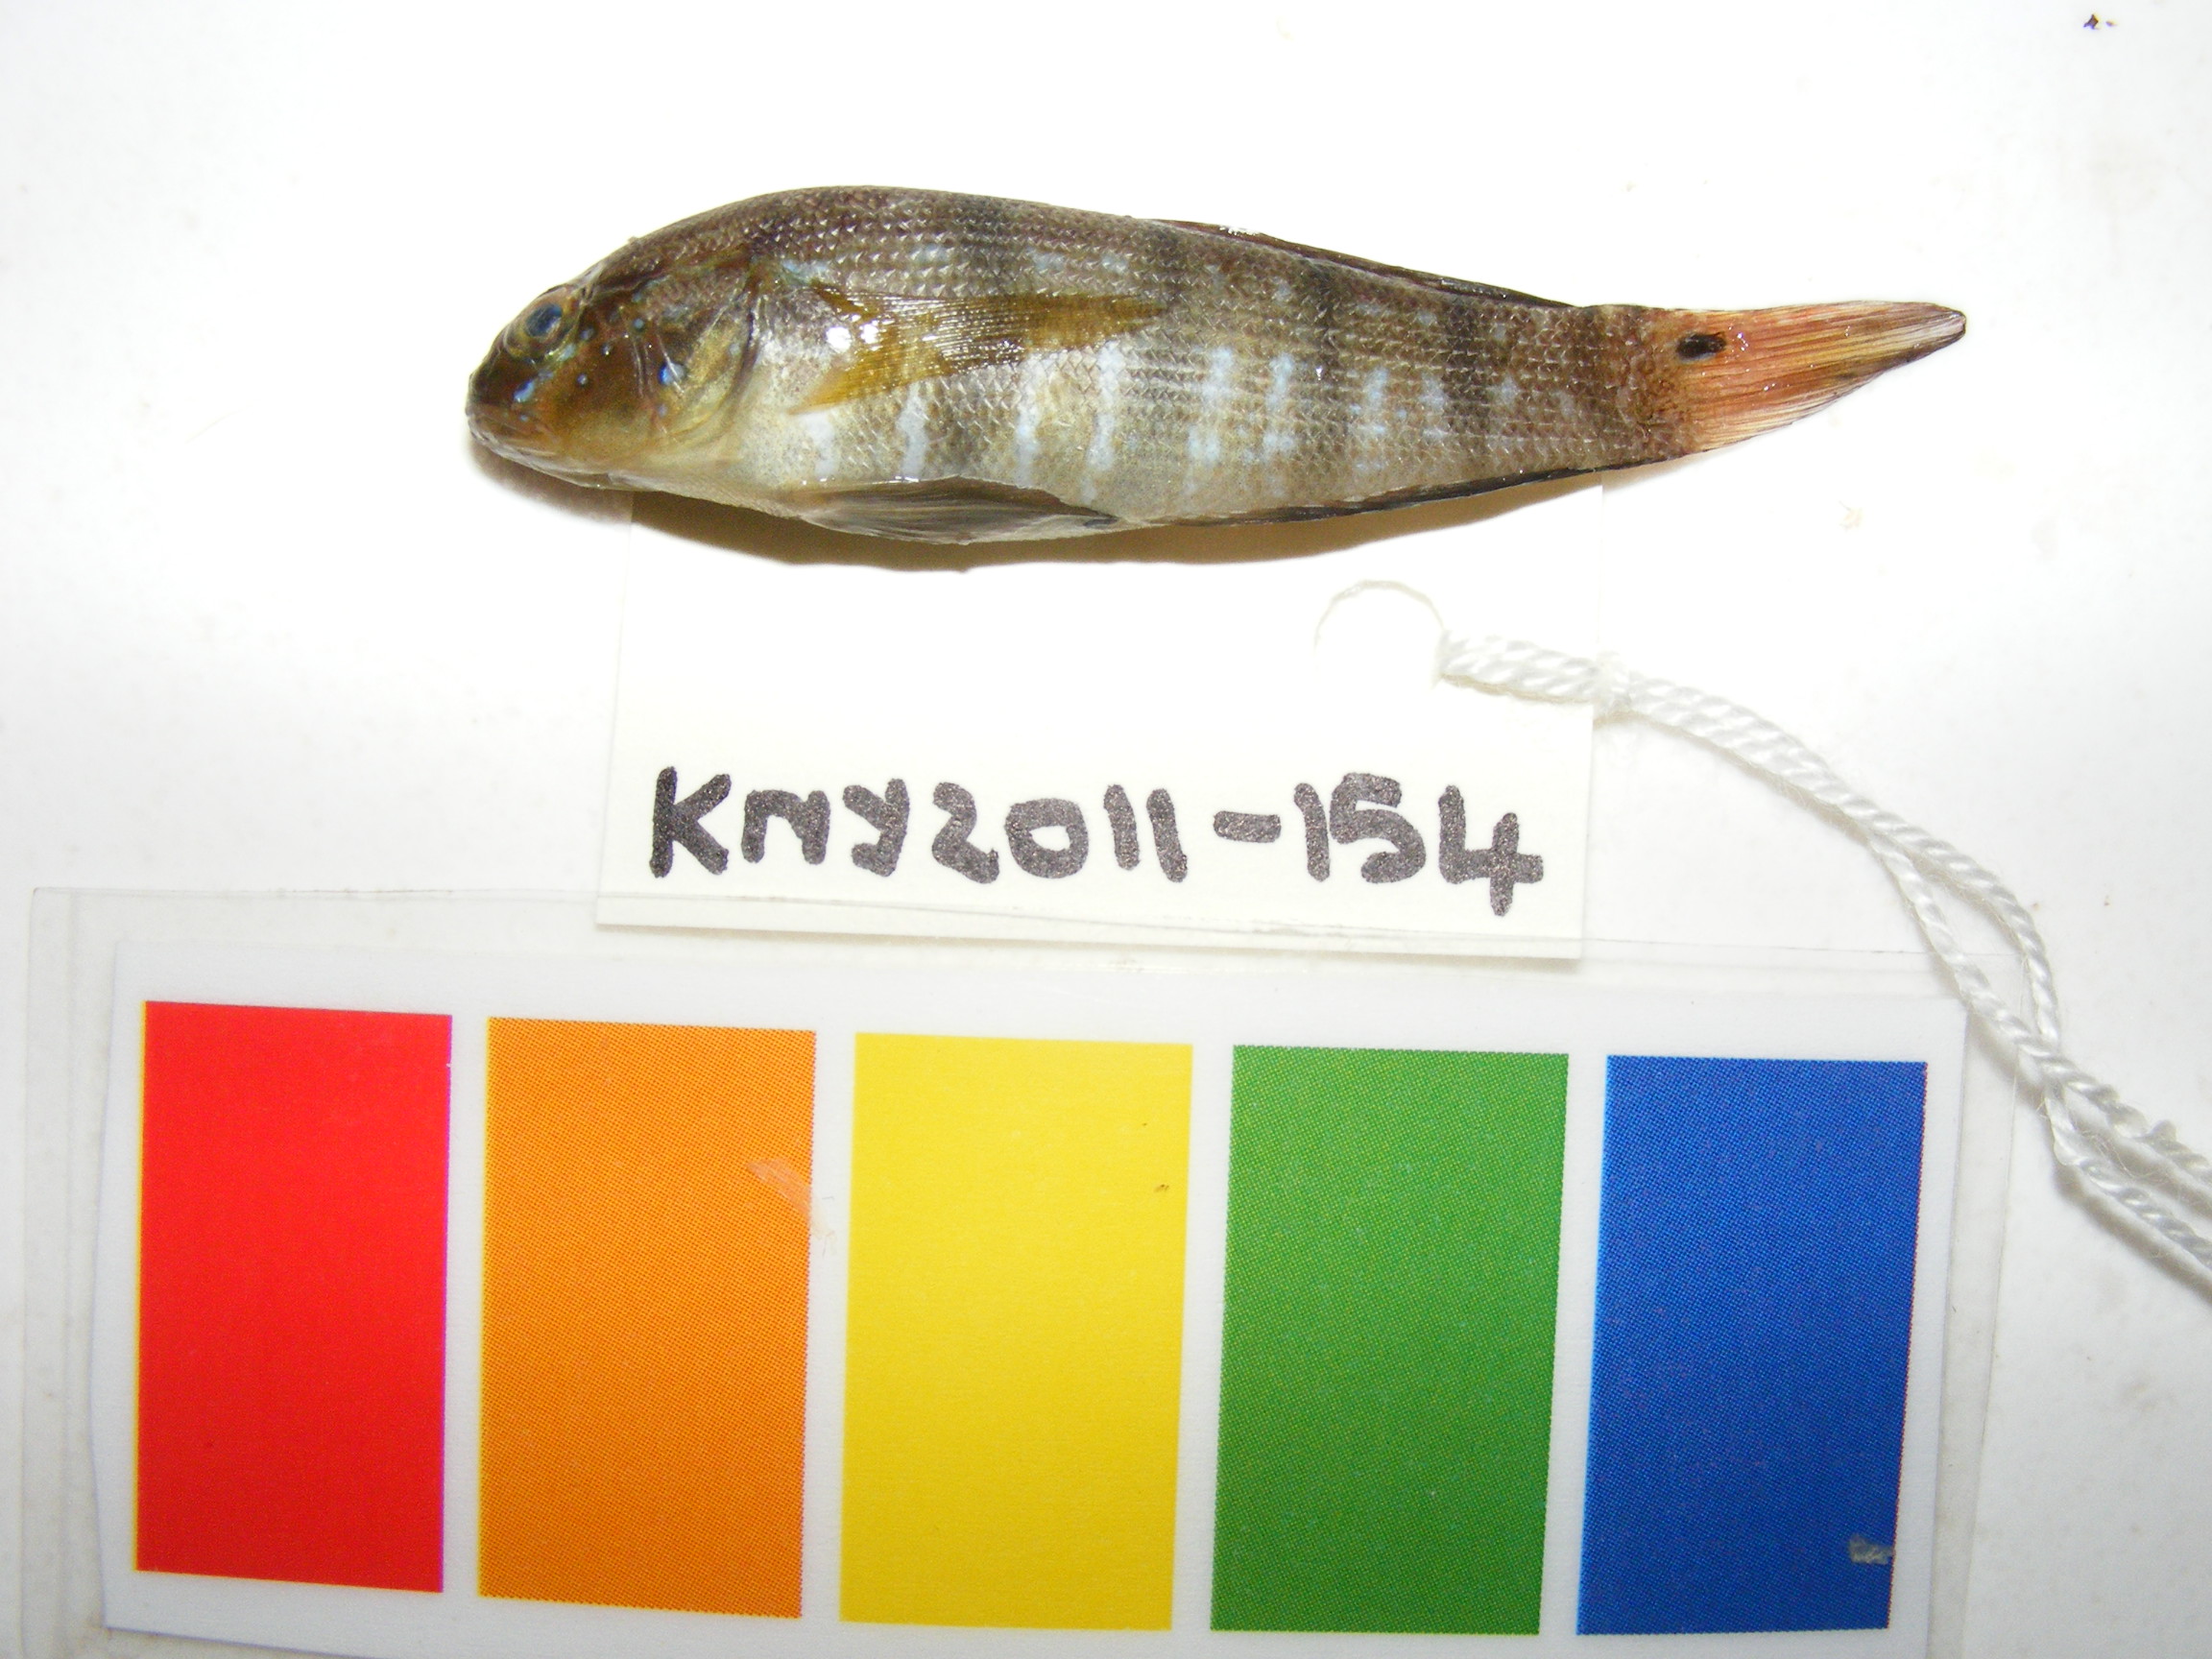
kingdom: Animalia
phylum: Chordata
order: Perciformes
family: Gobiidae
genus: Amblygobius
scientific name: Amblygobius sphynx
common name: Sphynx goby
